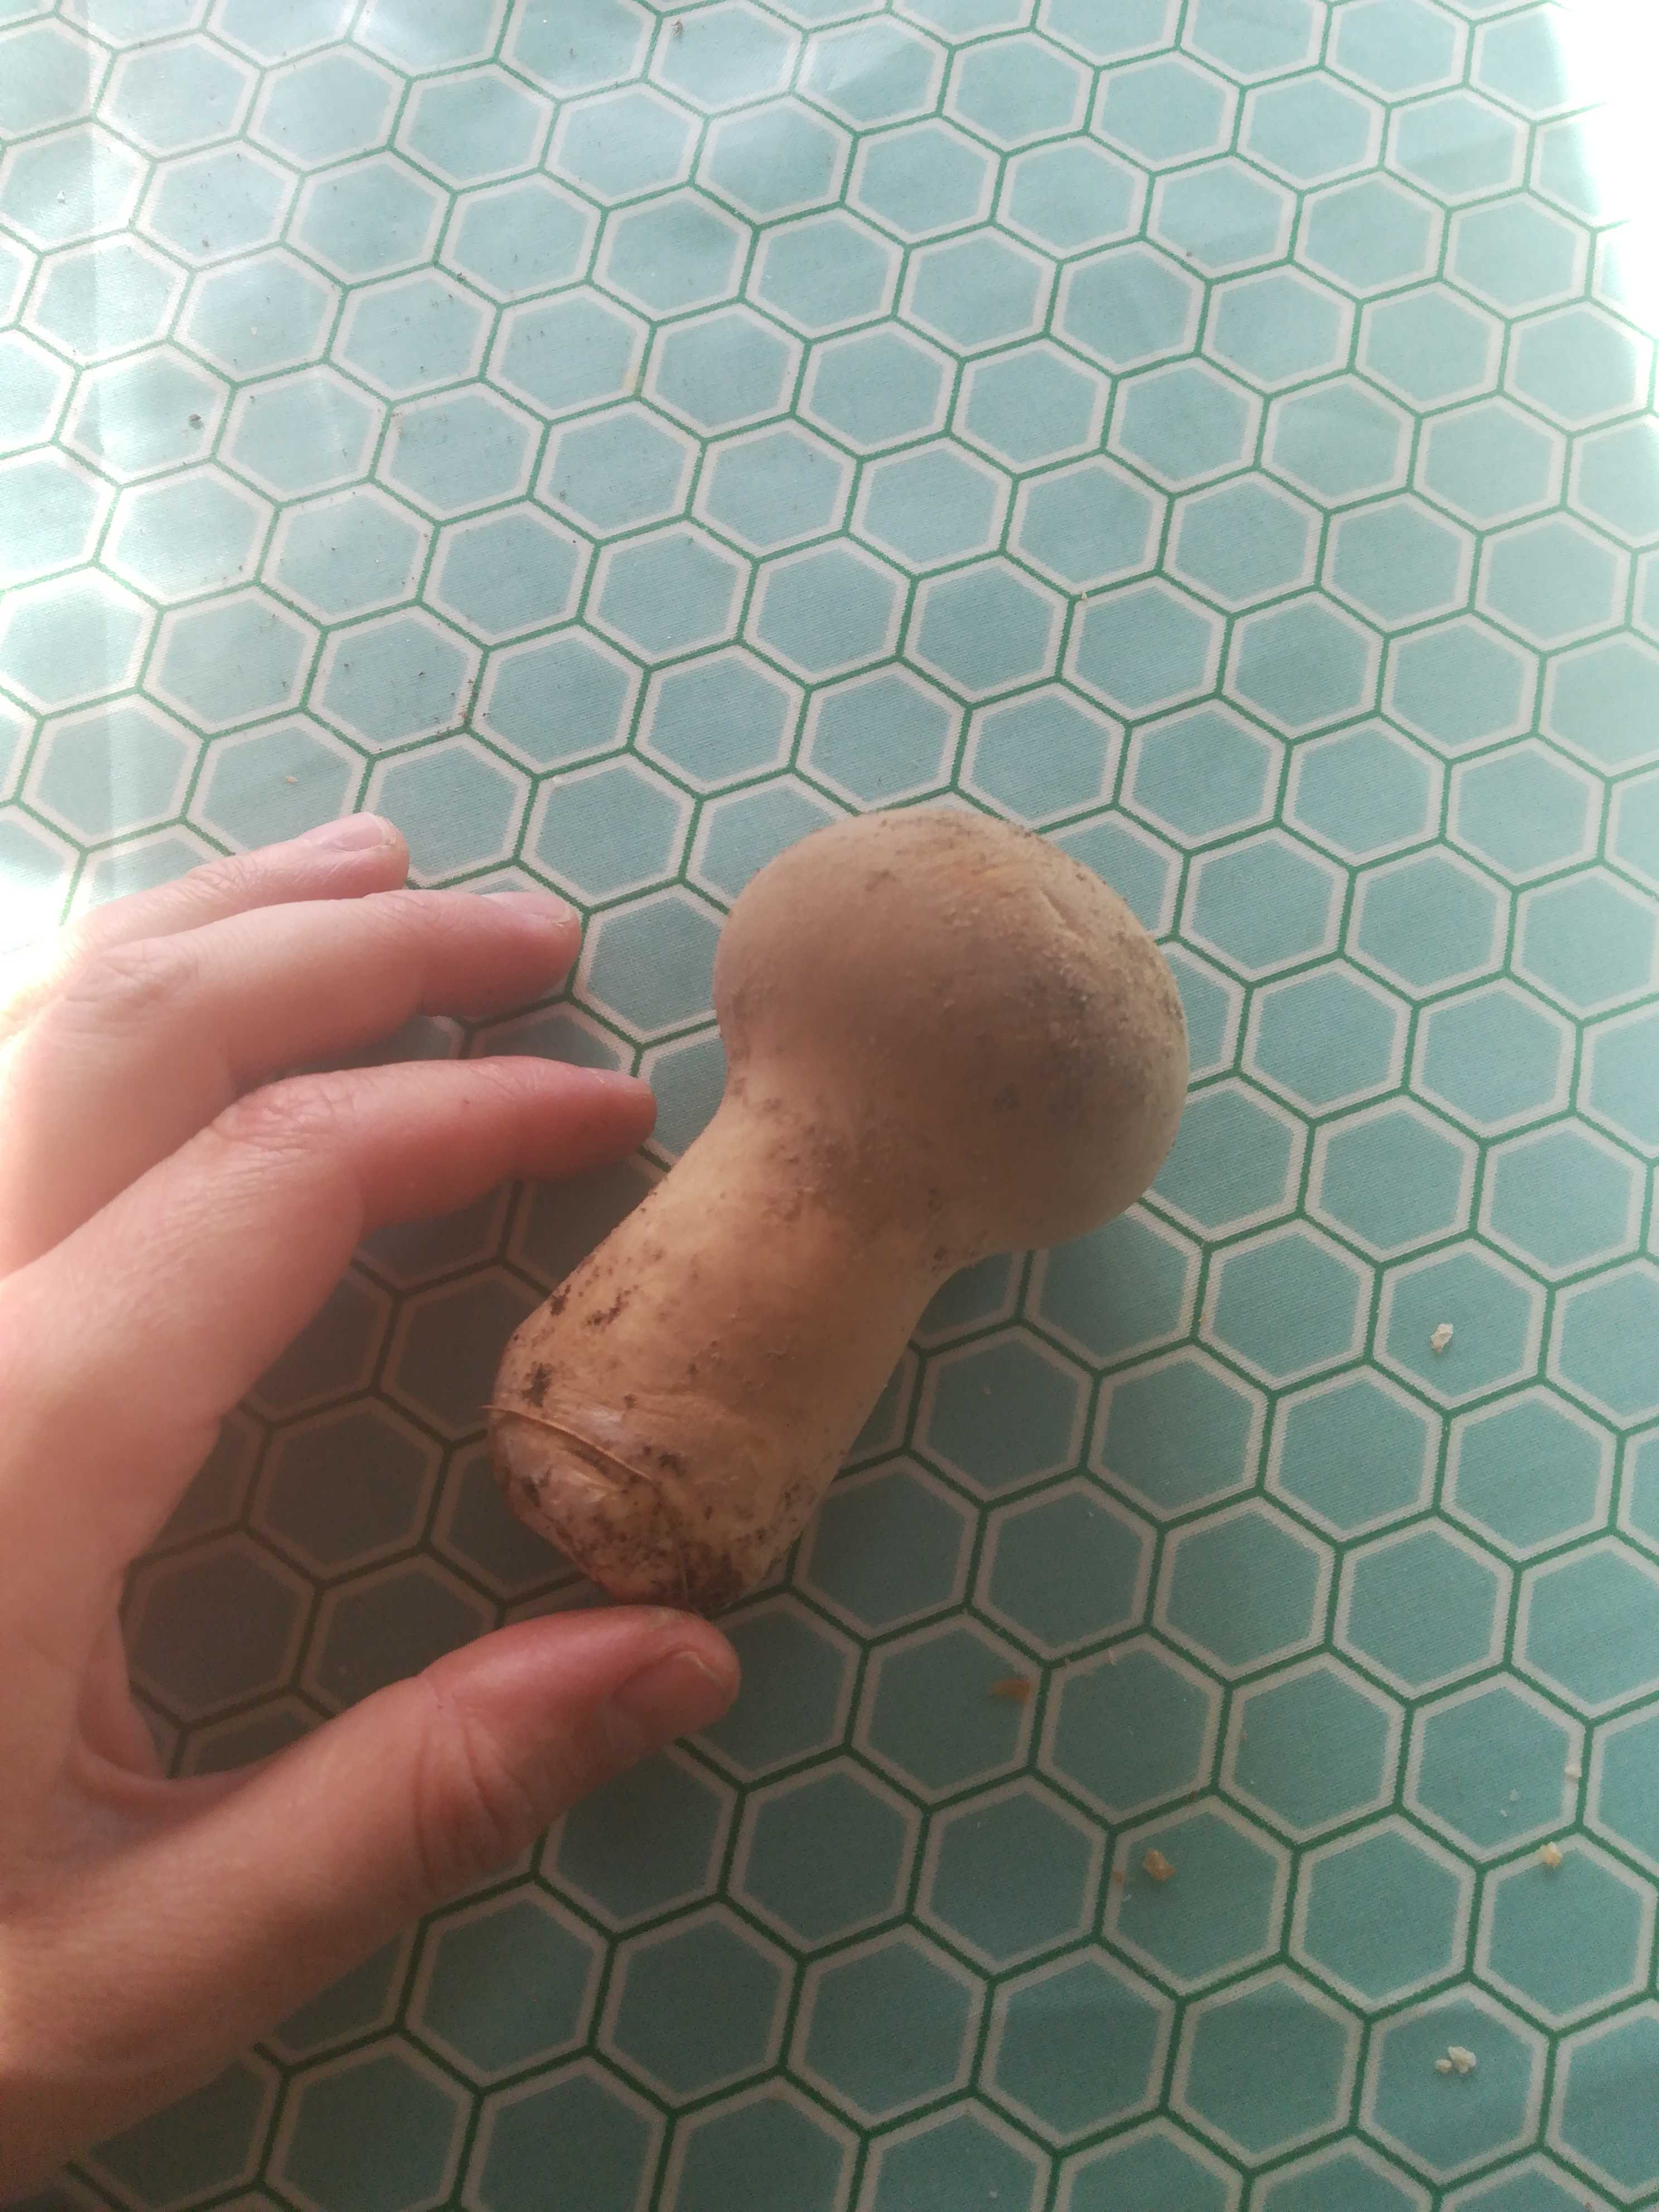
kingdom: Fungi
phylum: Basidiomycota
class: Agaricomycetes
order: Agaricales
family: Lycoperdaceae
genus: Lycoperdon
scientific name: Lycoperdon excipuliforme
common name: højstokket støvbold
